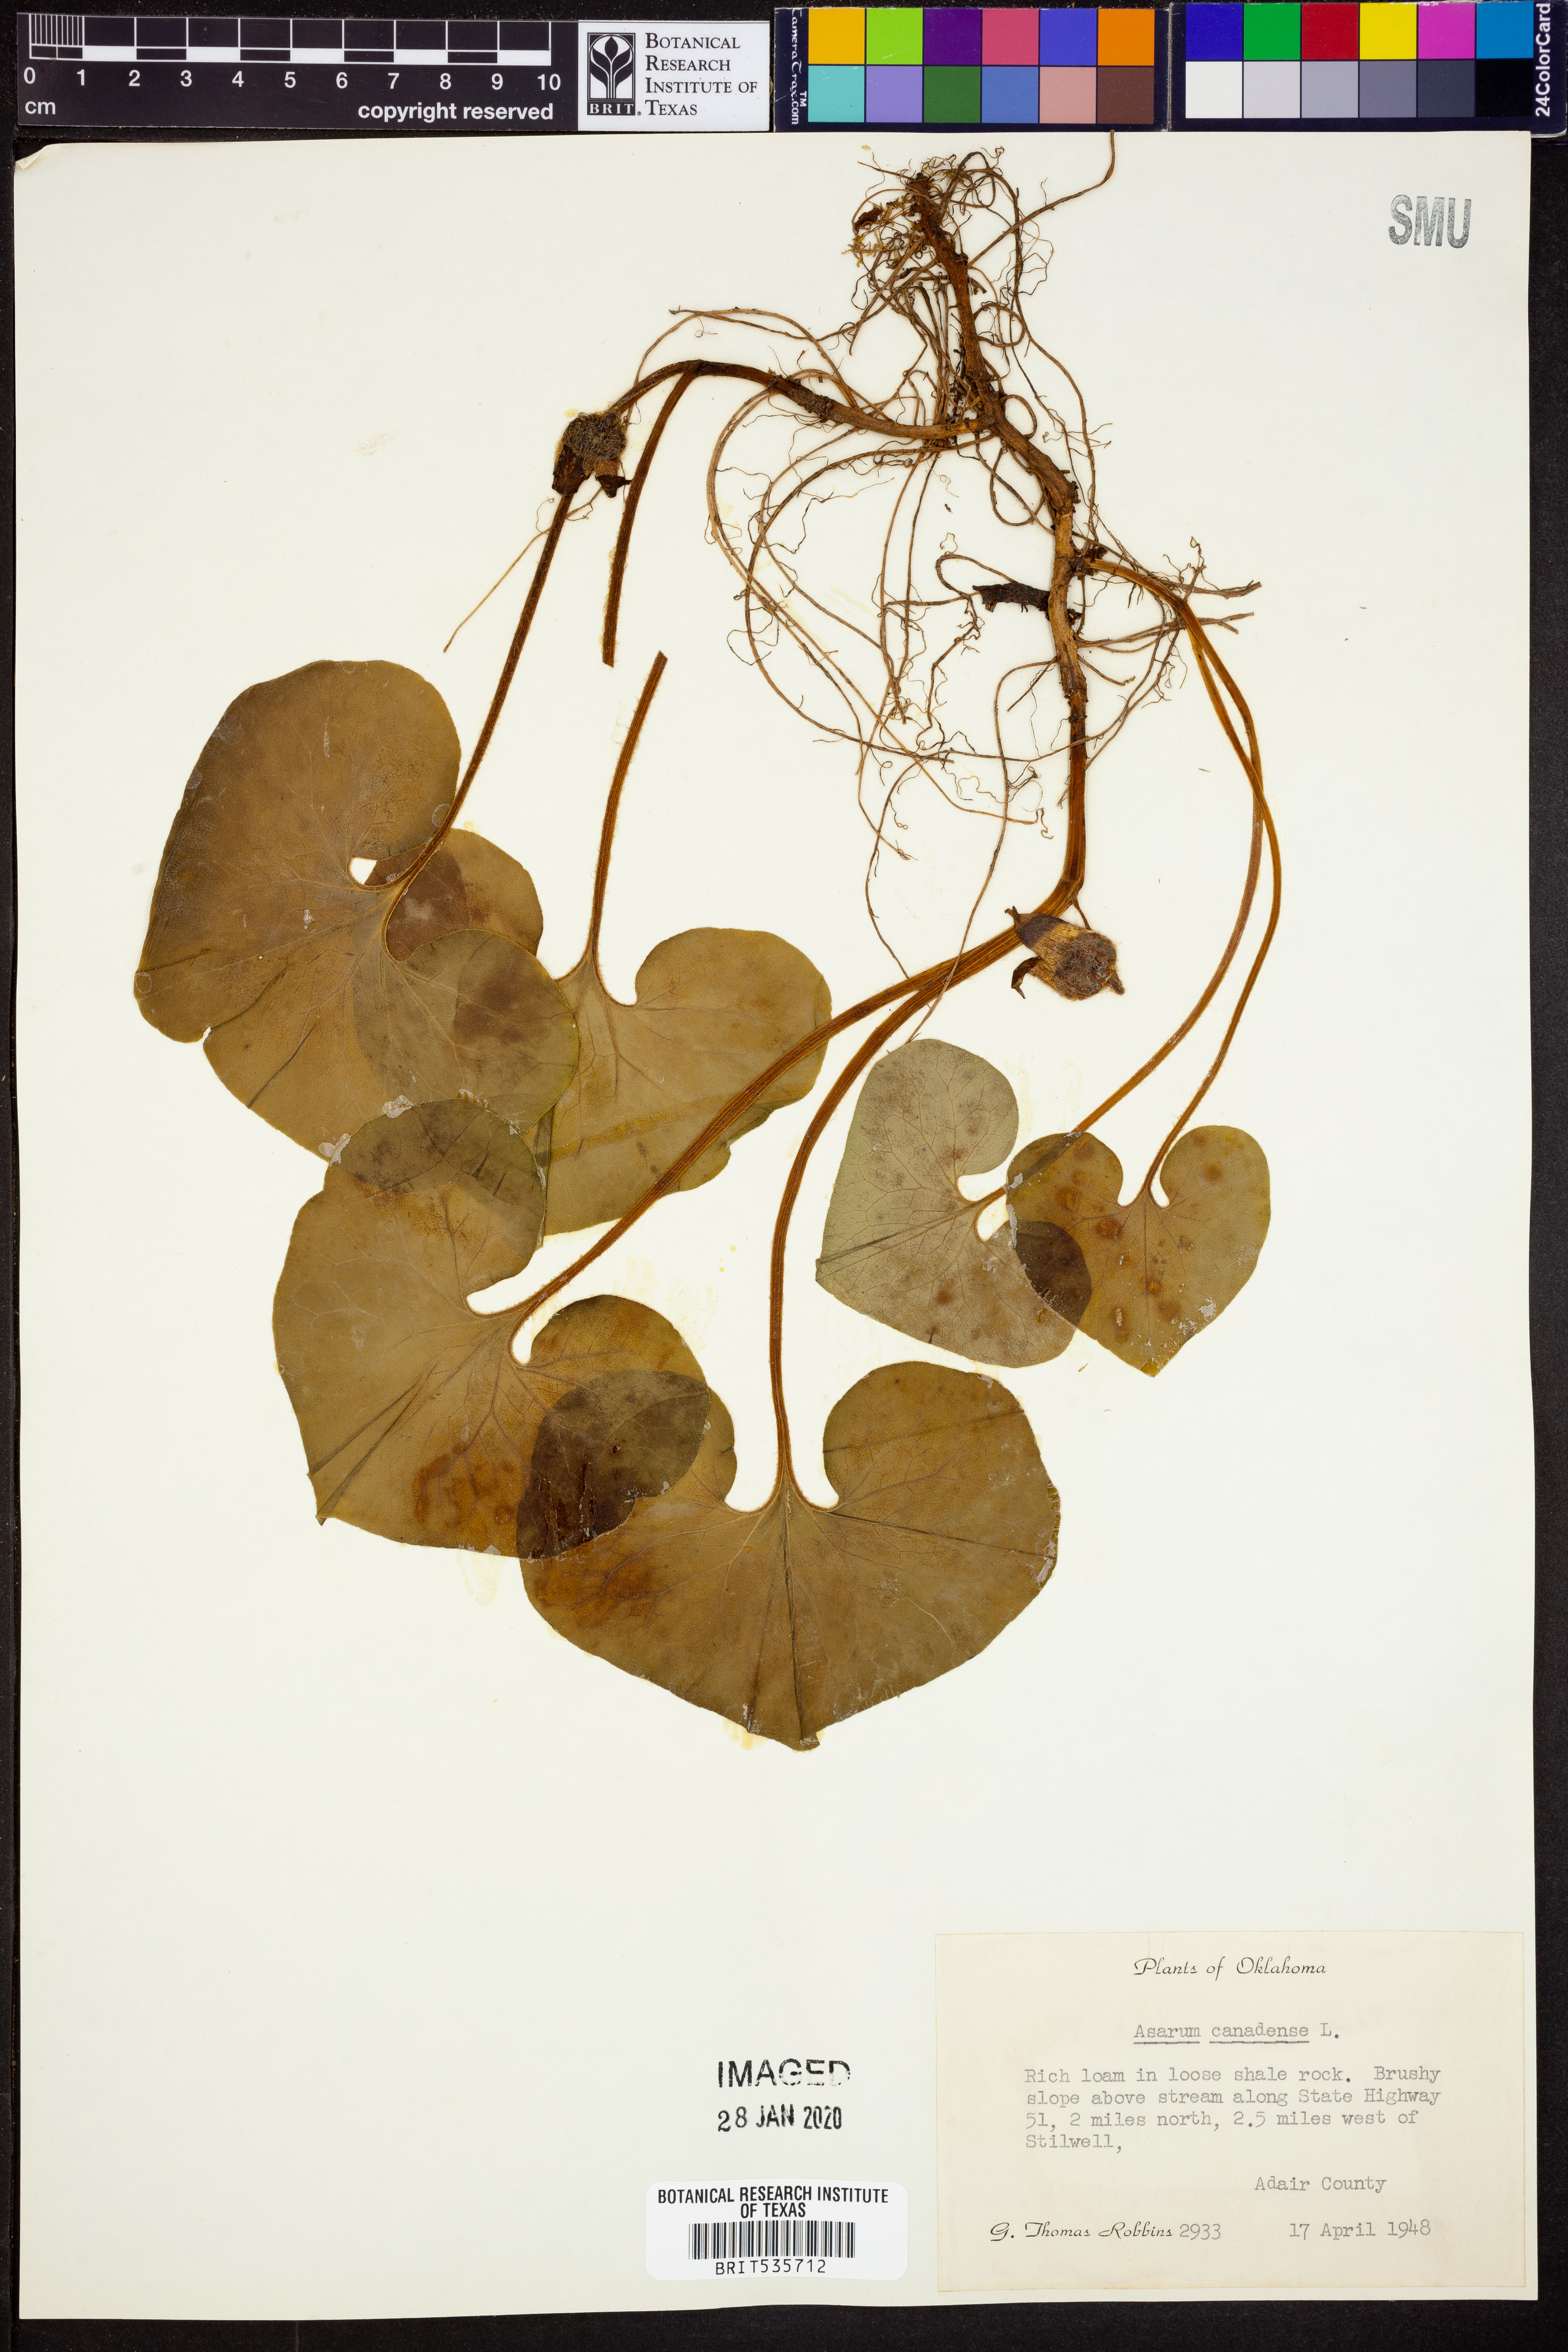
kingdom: Plantae
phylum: Tracheophyta
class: Magnoliopsida
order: Piperales
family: Aristolochiaceae
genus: Asarum
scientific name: Asarum canadense
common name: Wild ginger
